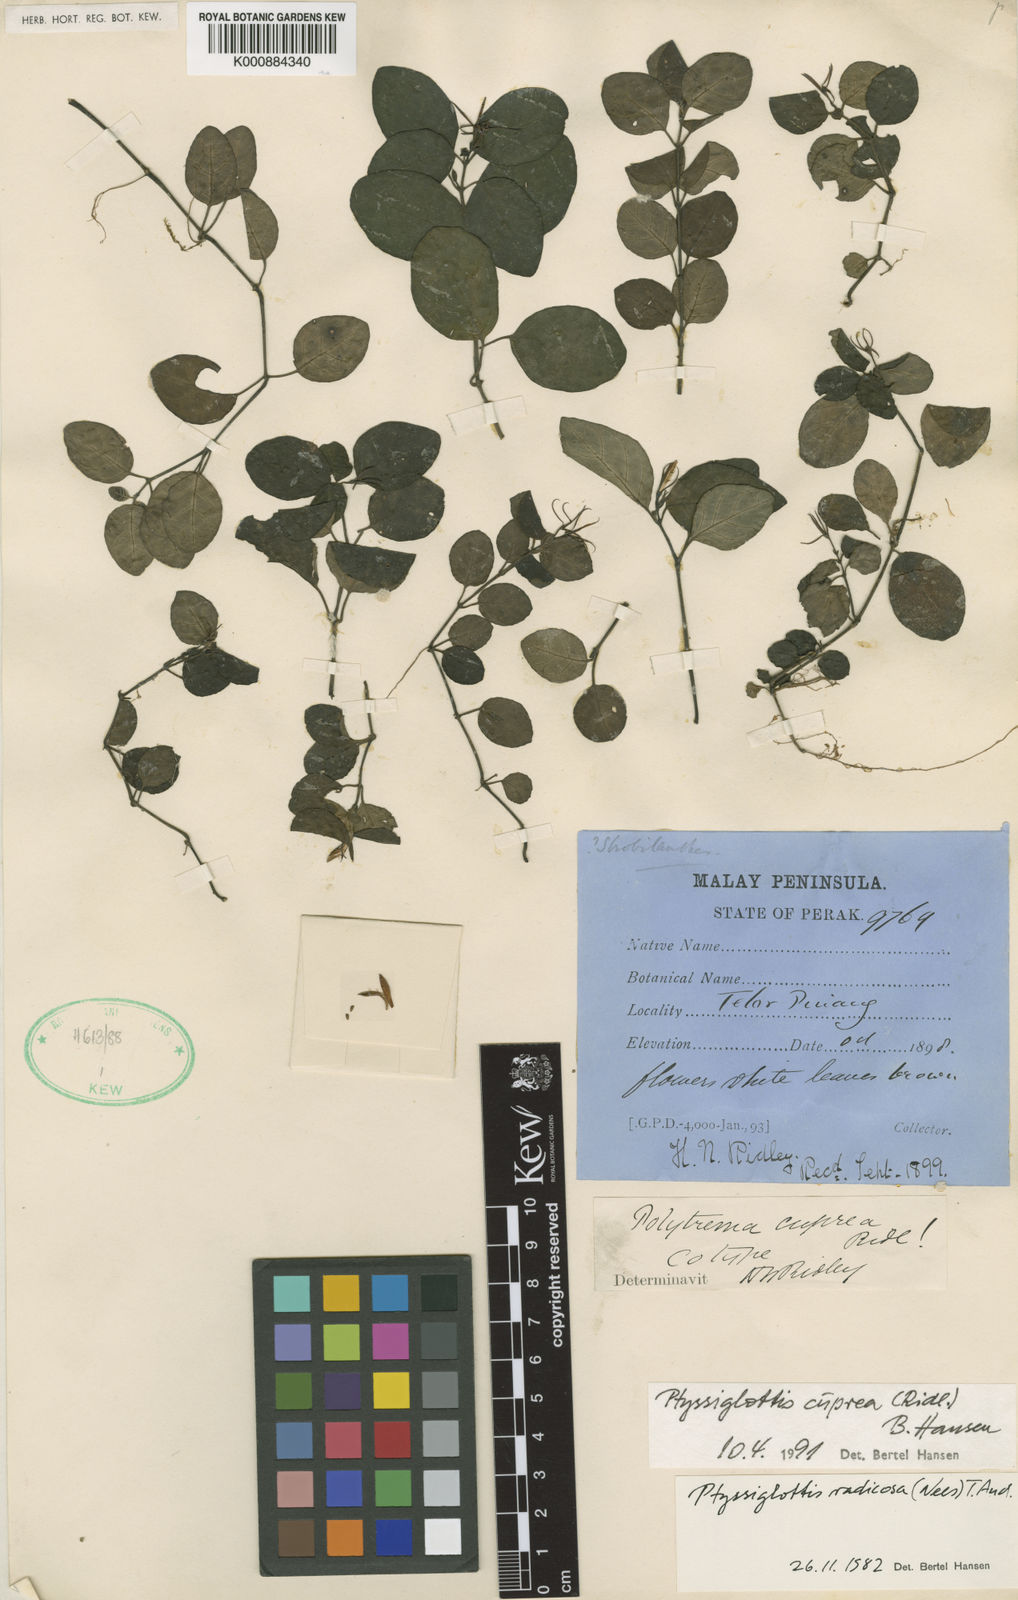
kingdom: Plantae
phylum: Tracheophyta
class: Magnoliopsida
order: Lamiales
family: Acanthaceae
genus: Ptyssiglottis
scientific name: Ptyssiglottis cuprea
